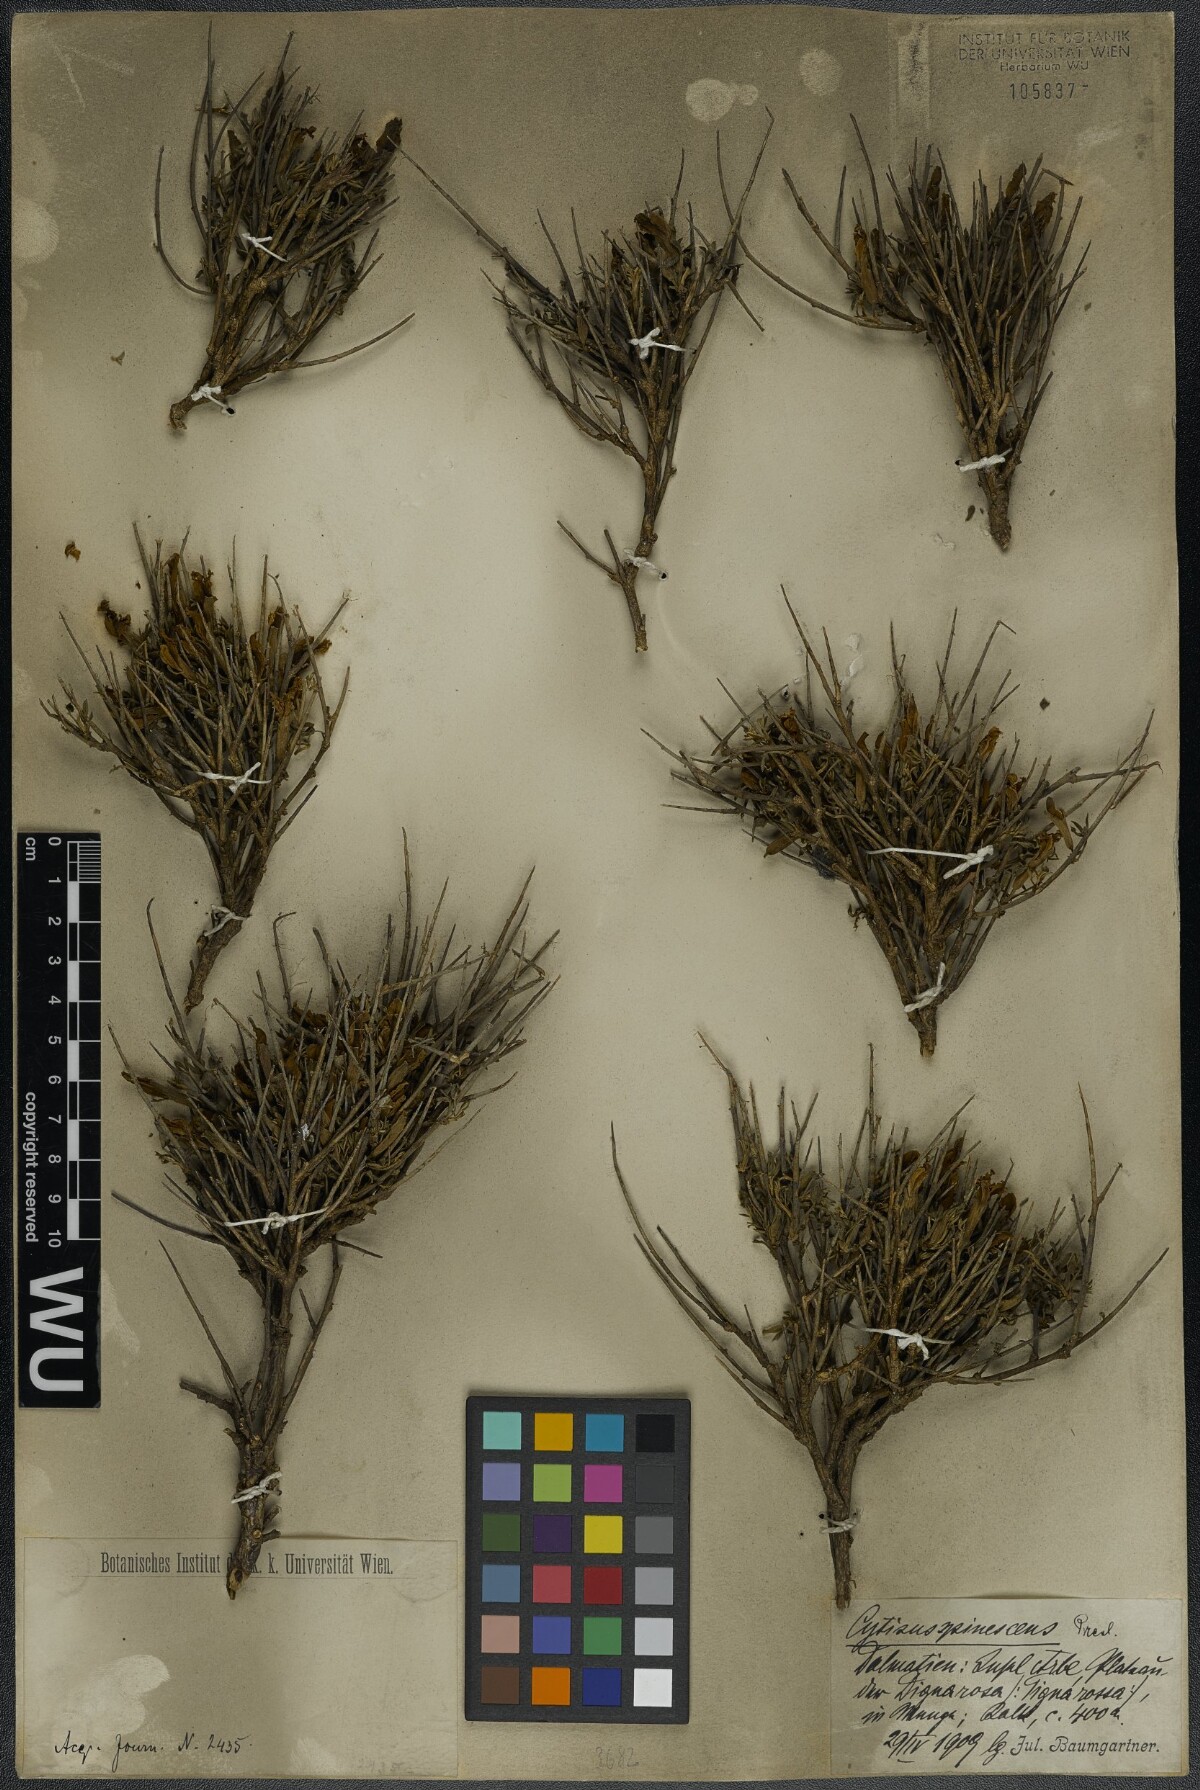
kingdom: Plantae
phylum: Tracheophyta
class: Magnoliopsida
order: Fabales
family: Fabaceae
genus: Chamaecytisus
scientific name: Chamaecytisus spinescens
